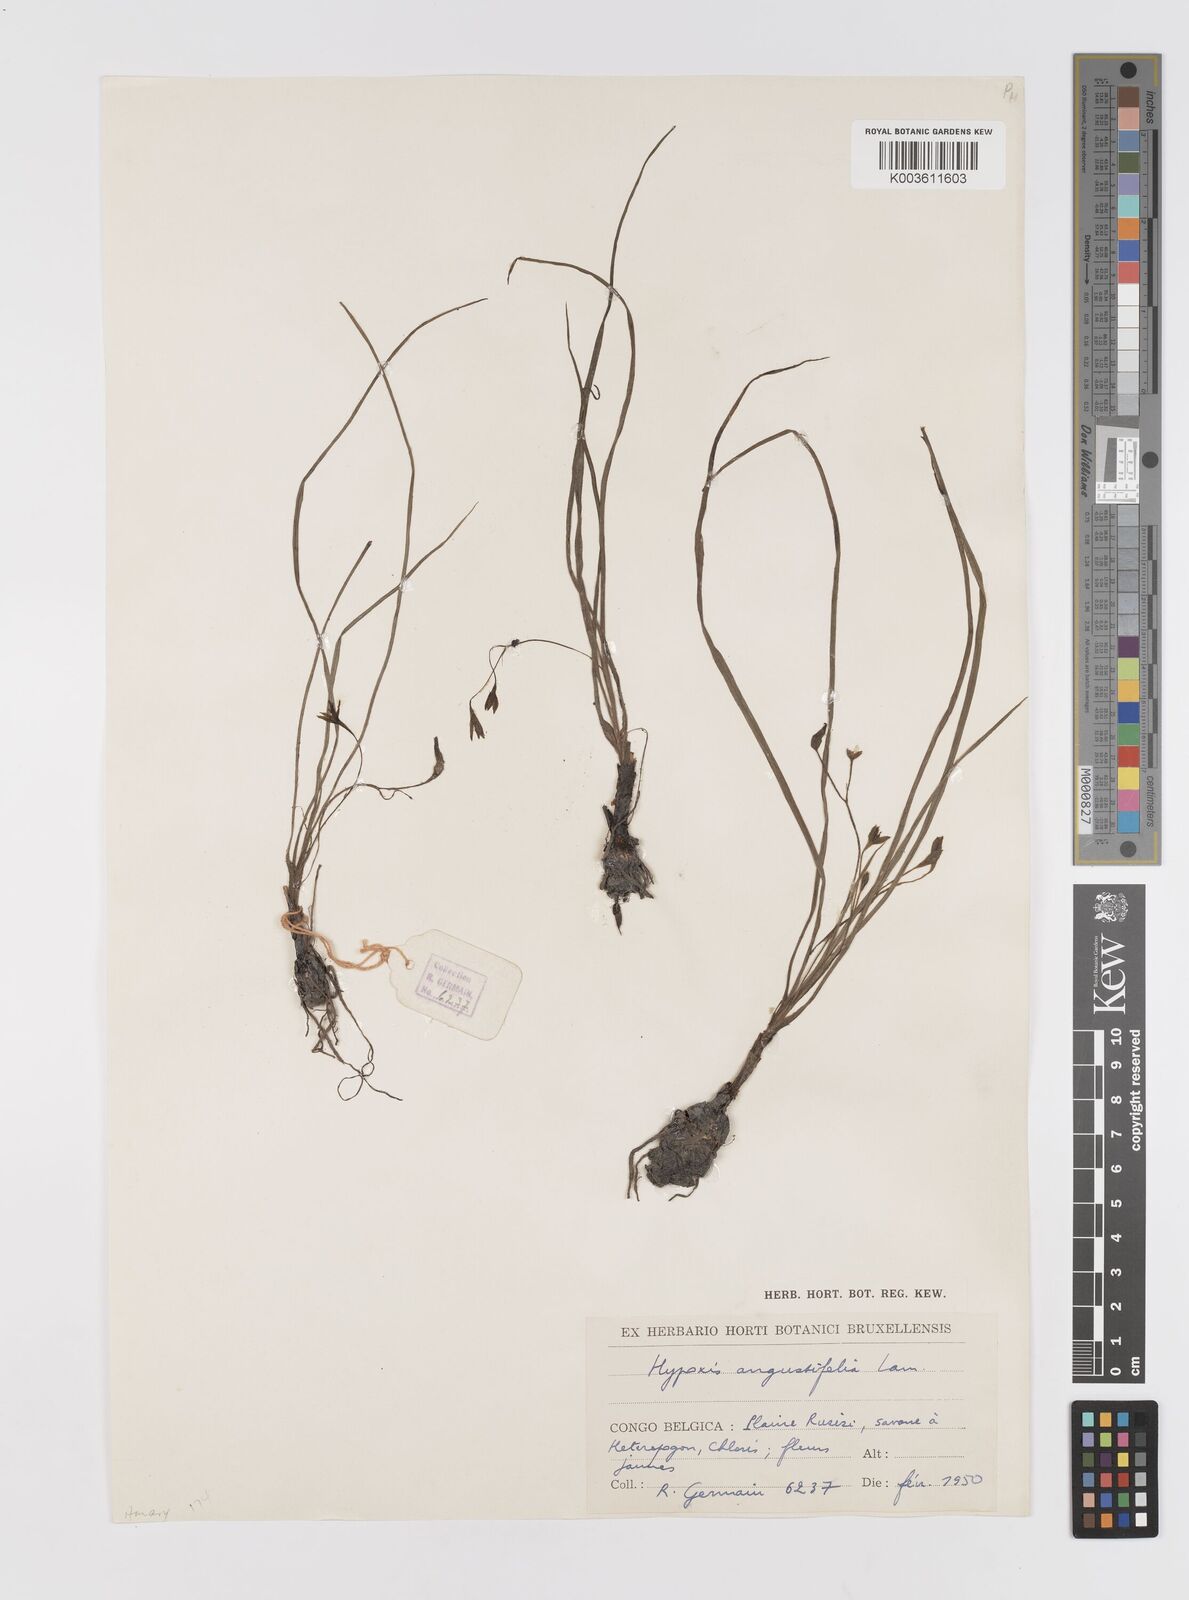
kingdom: Plantae
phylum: Tracheophyta
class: Liliopsida
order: Asparagales
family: Hypoxidaceae
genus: Hypoxis
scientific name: Hypoxis angustifolia
